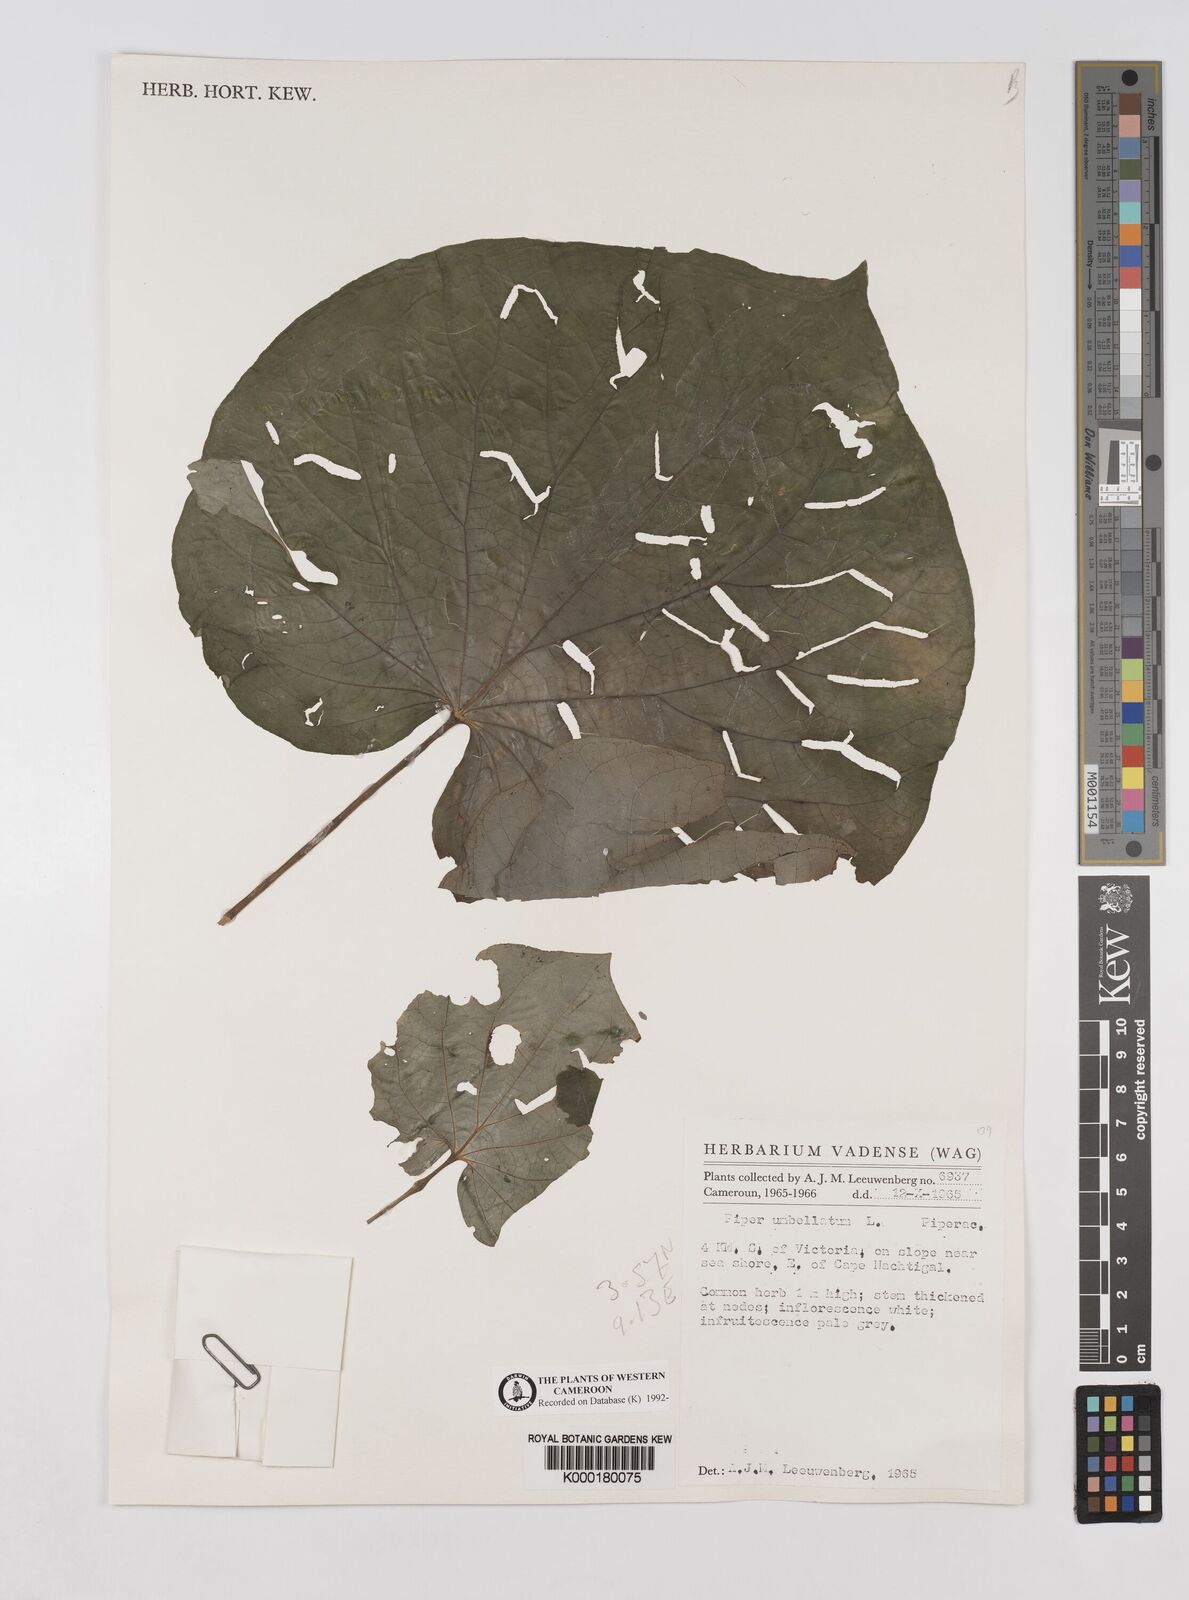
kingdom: Plantae
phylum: Tracheophyta
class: Magnoliopsida
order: Piperales
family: Piperaceae
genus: Piper
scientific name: Piper umbellatum
